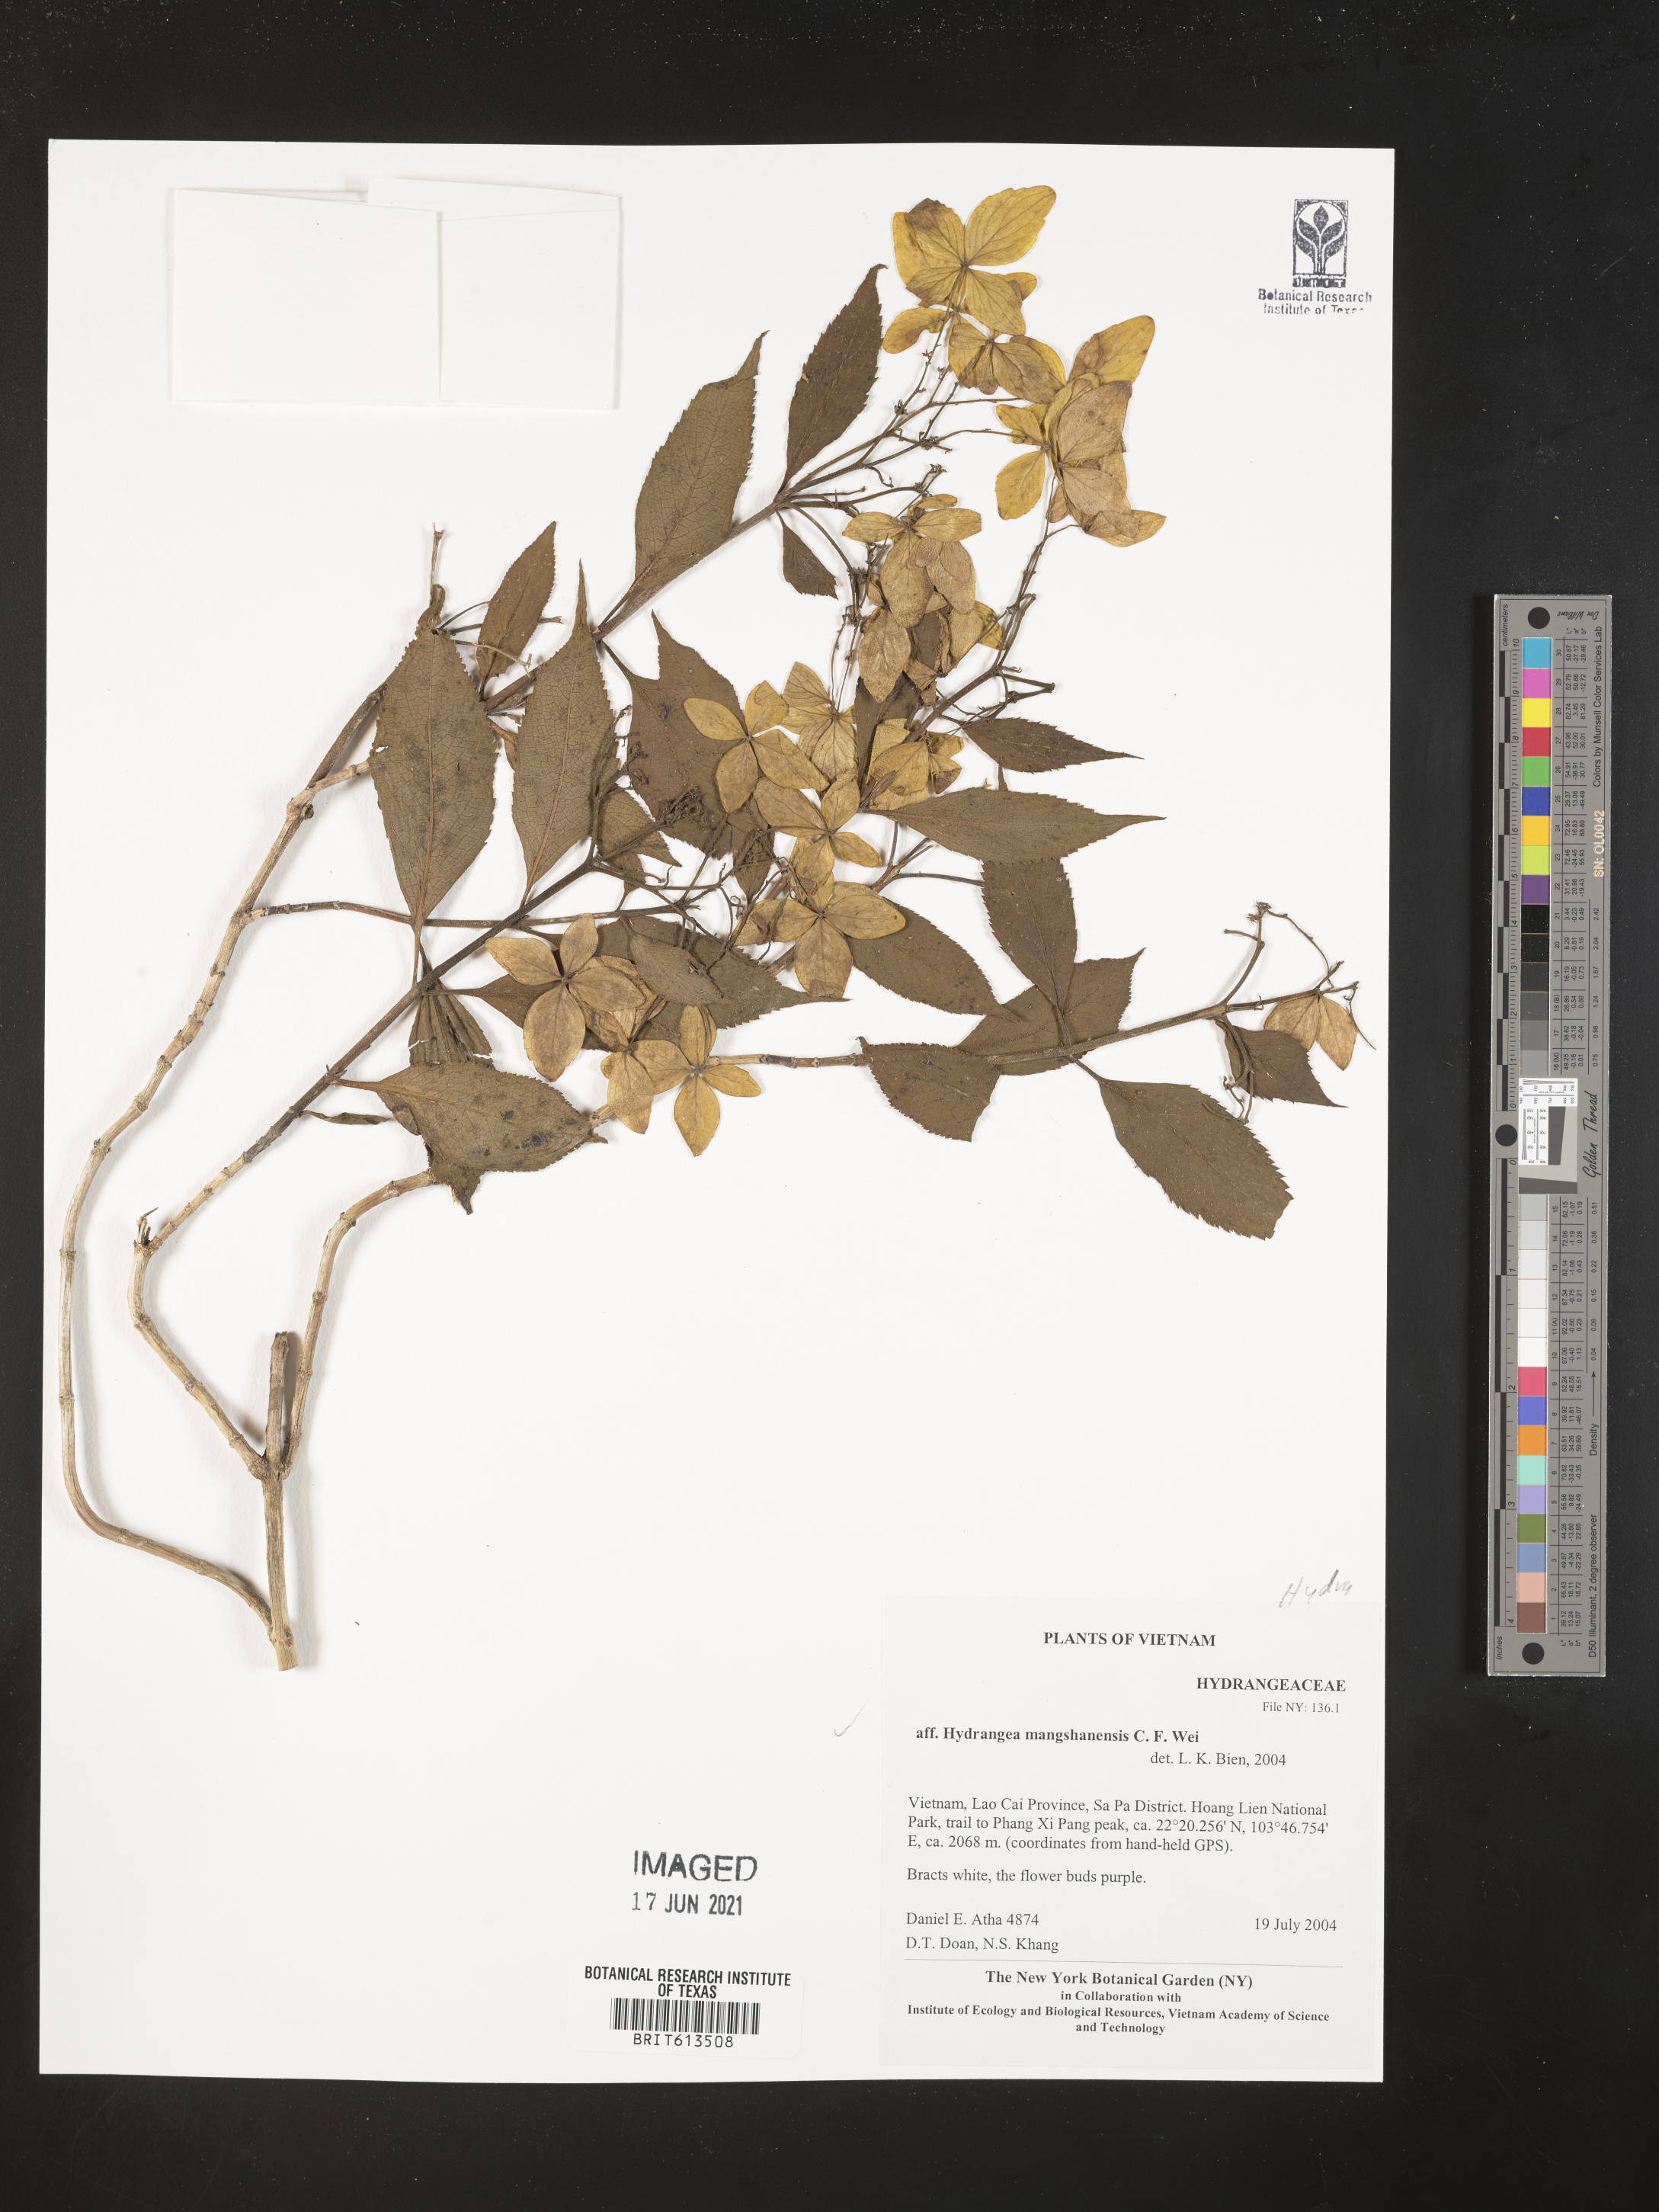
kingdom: Plantae
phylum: Tracheophyta
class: Magnoliopsida
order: Cornales
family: Hydrangeaceae
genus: Hydrangea
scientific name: Hydrangea mangshanensis
